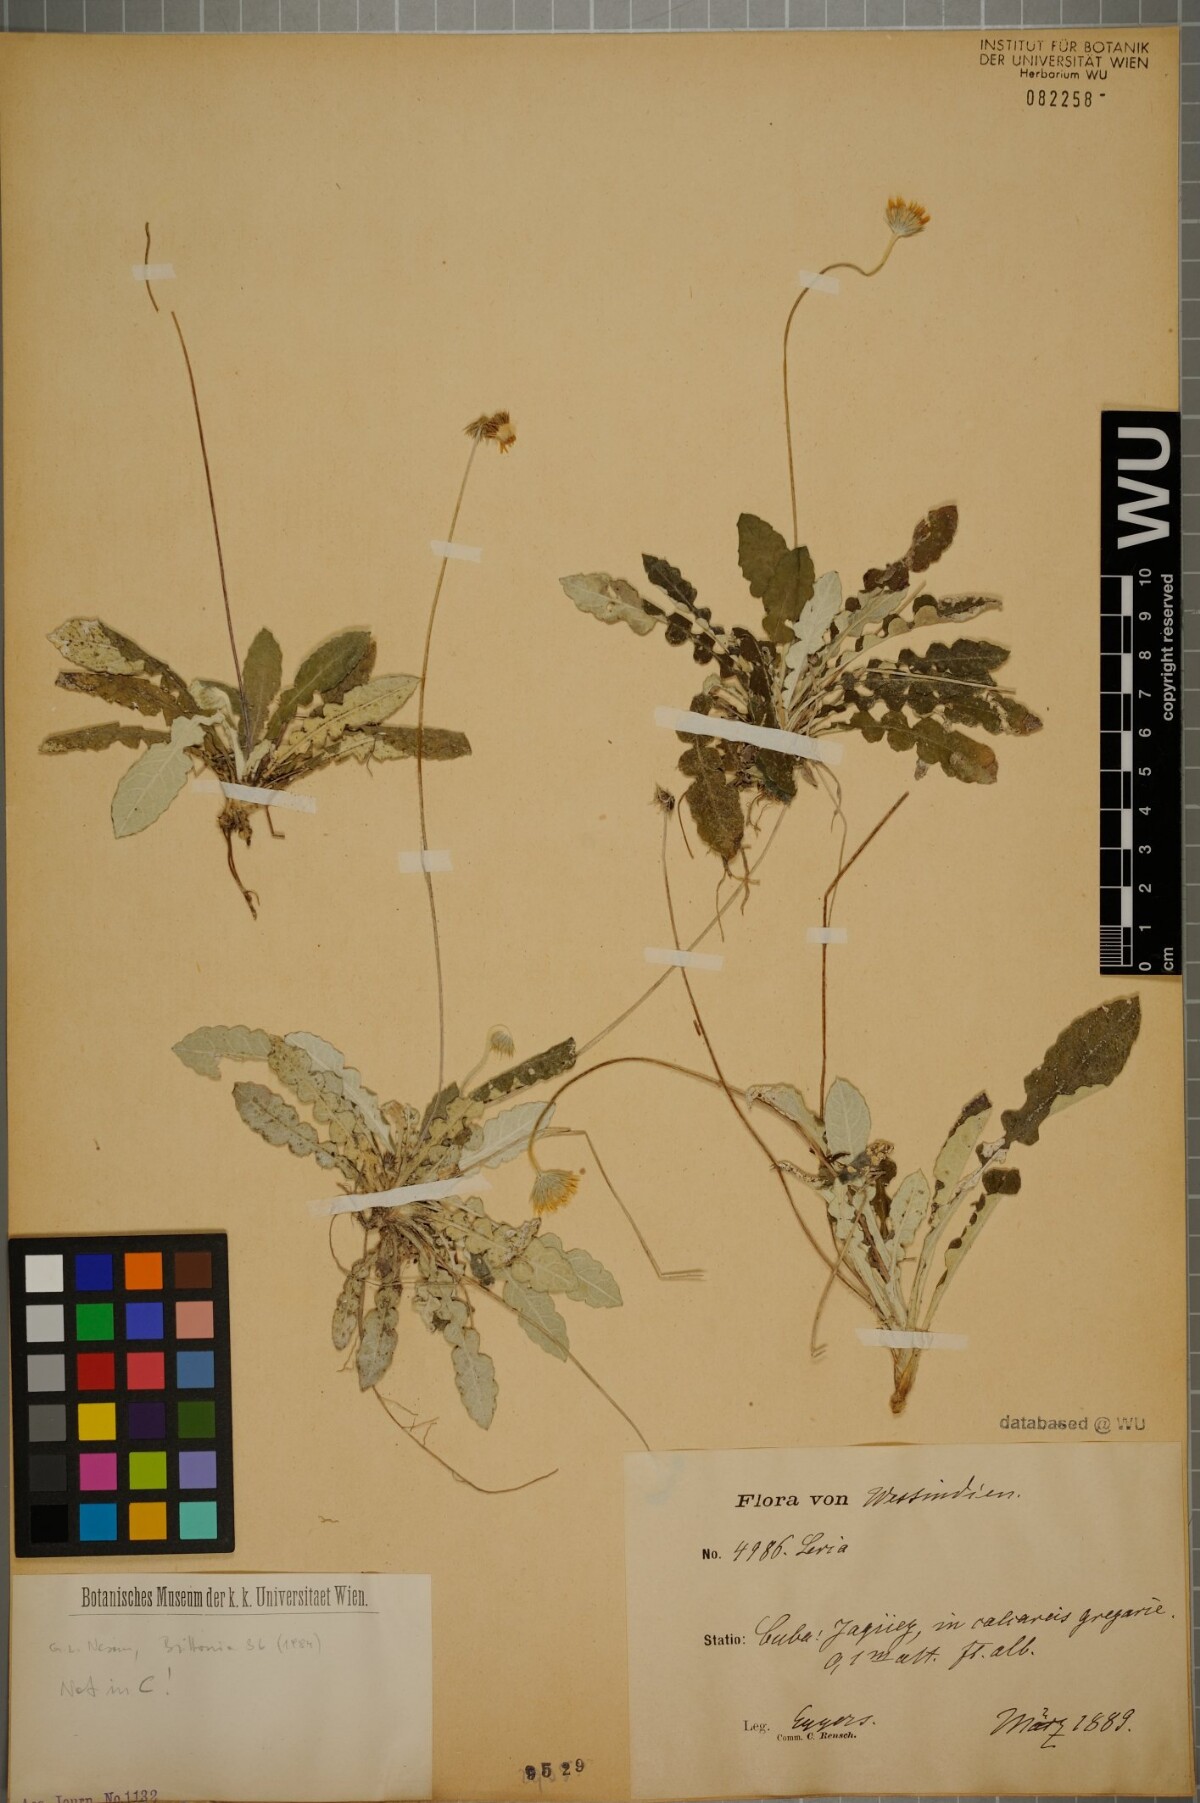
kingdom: Plantae
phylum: Tracheophyta
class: Magnoliopsida
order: Asterales
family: Asteraceae
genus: Chaptalia
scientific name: Chaptalia
